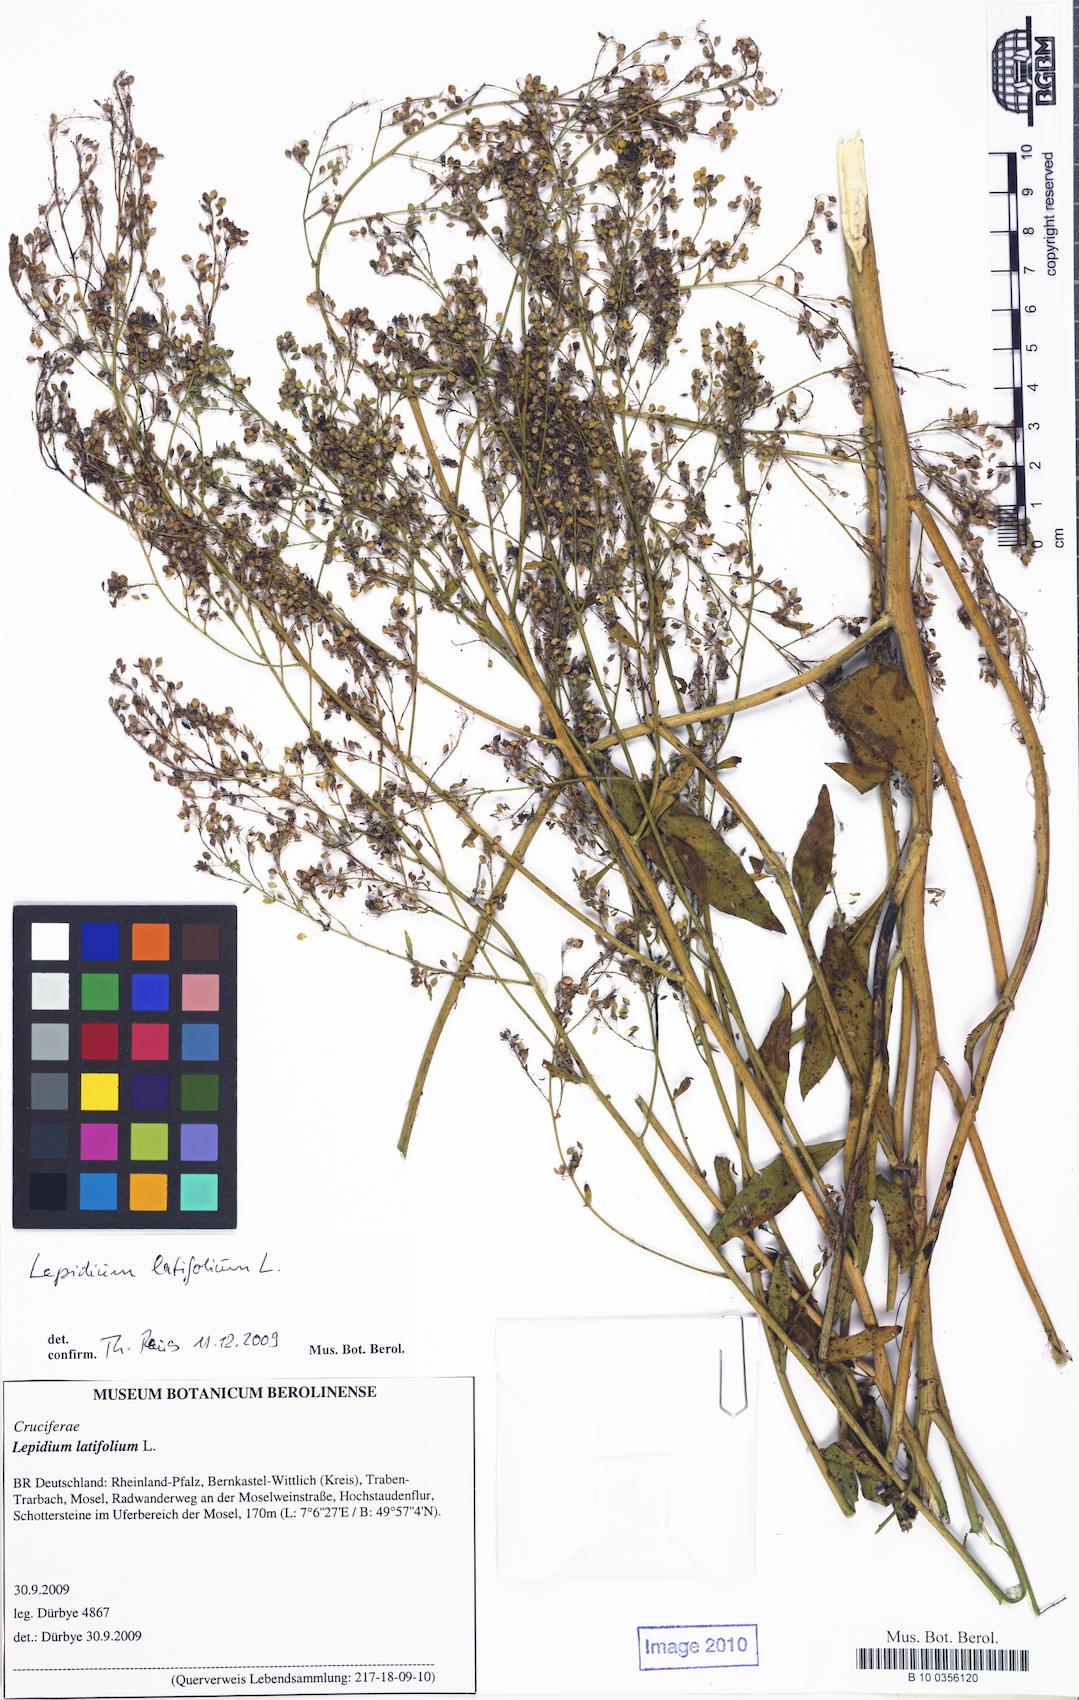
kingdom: Plantae
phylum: Tracheophyta
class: Magnoliopsida
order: Brassicales
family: Brassicaceae
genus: Lepidium
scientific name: Lepidium latifolium
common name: Dittander
